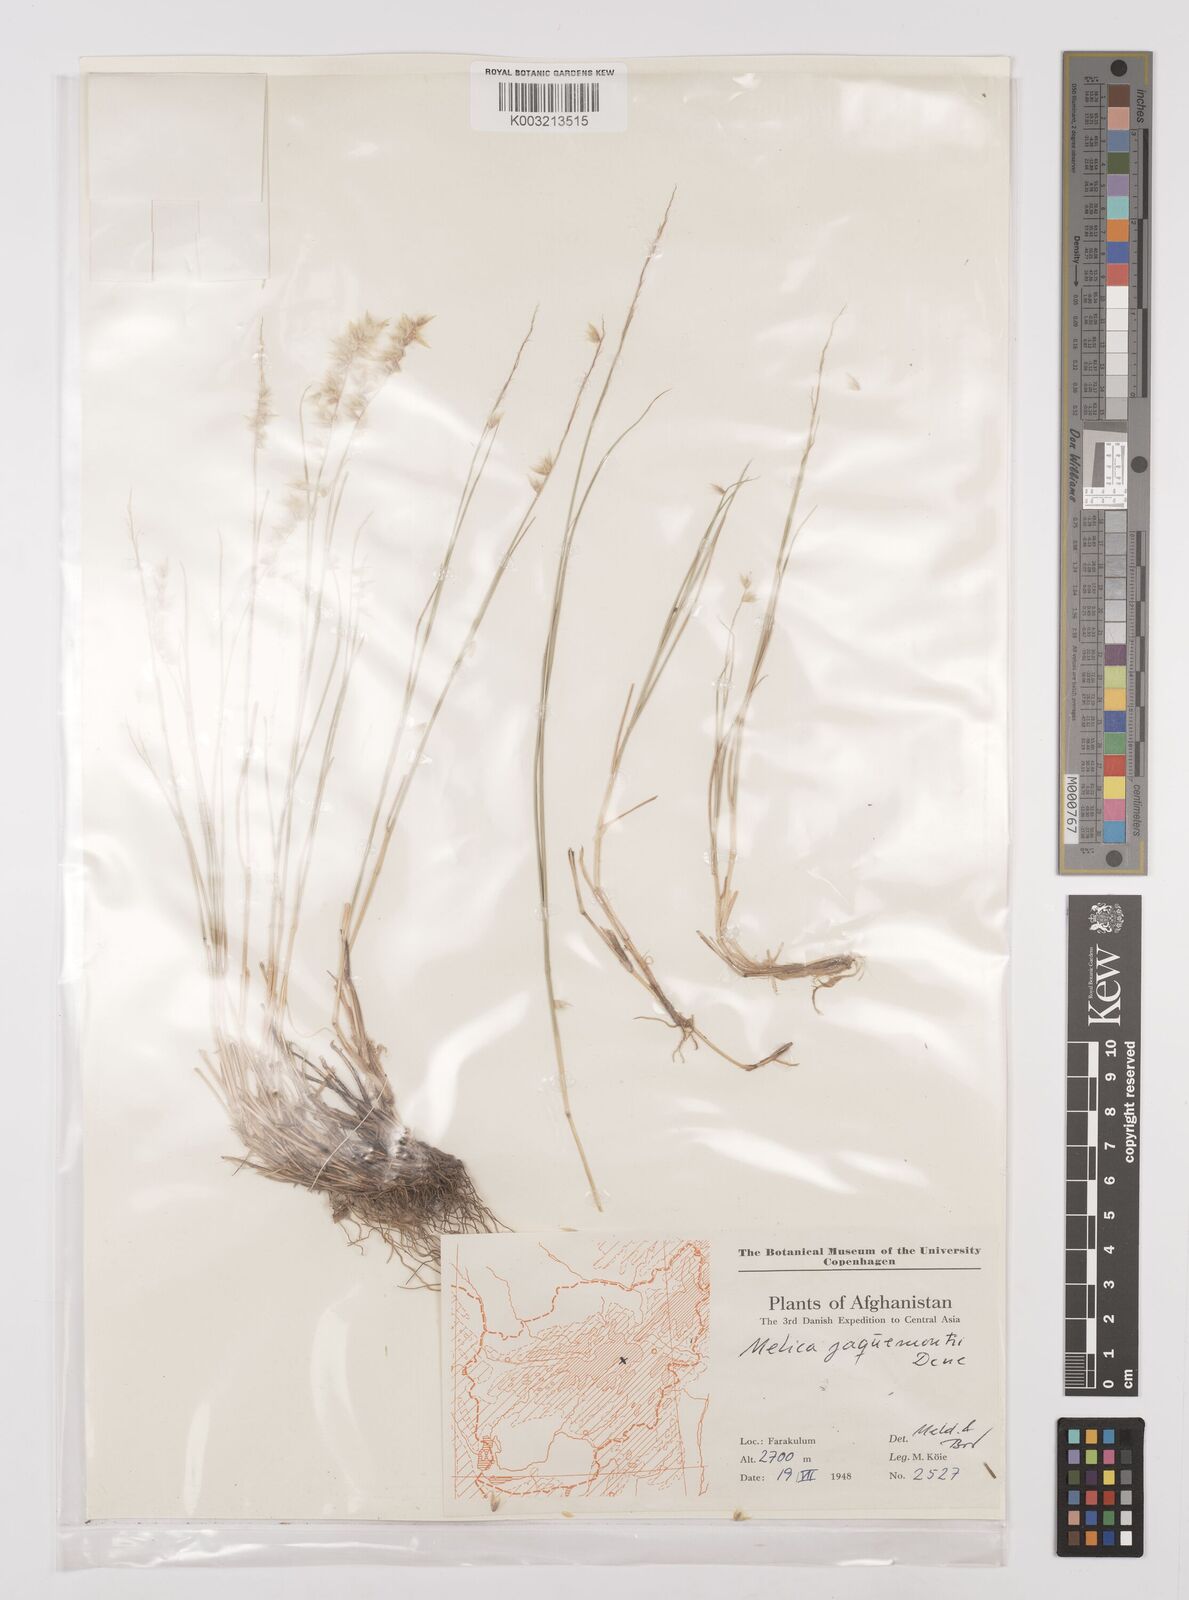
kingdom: Plantae
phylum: Tracheophyta
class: Liliopsida
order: Poales
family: Poaceae
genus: Melica
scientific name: Melica persica
